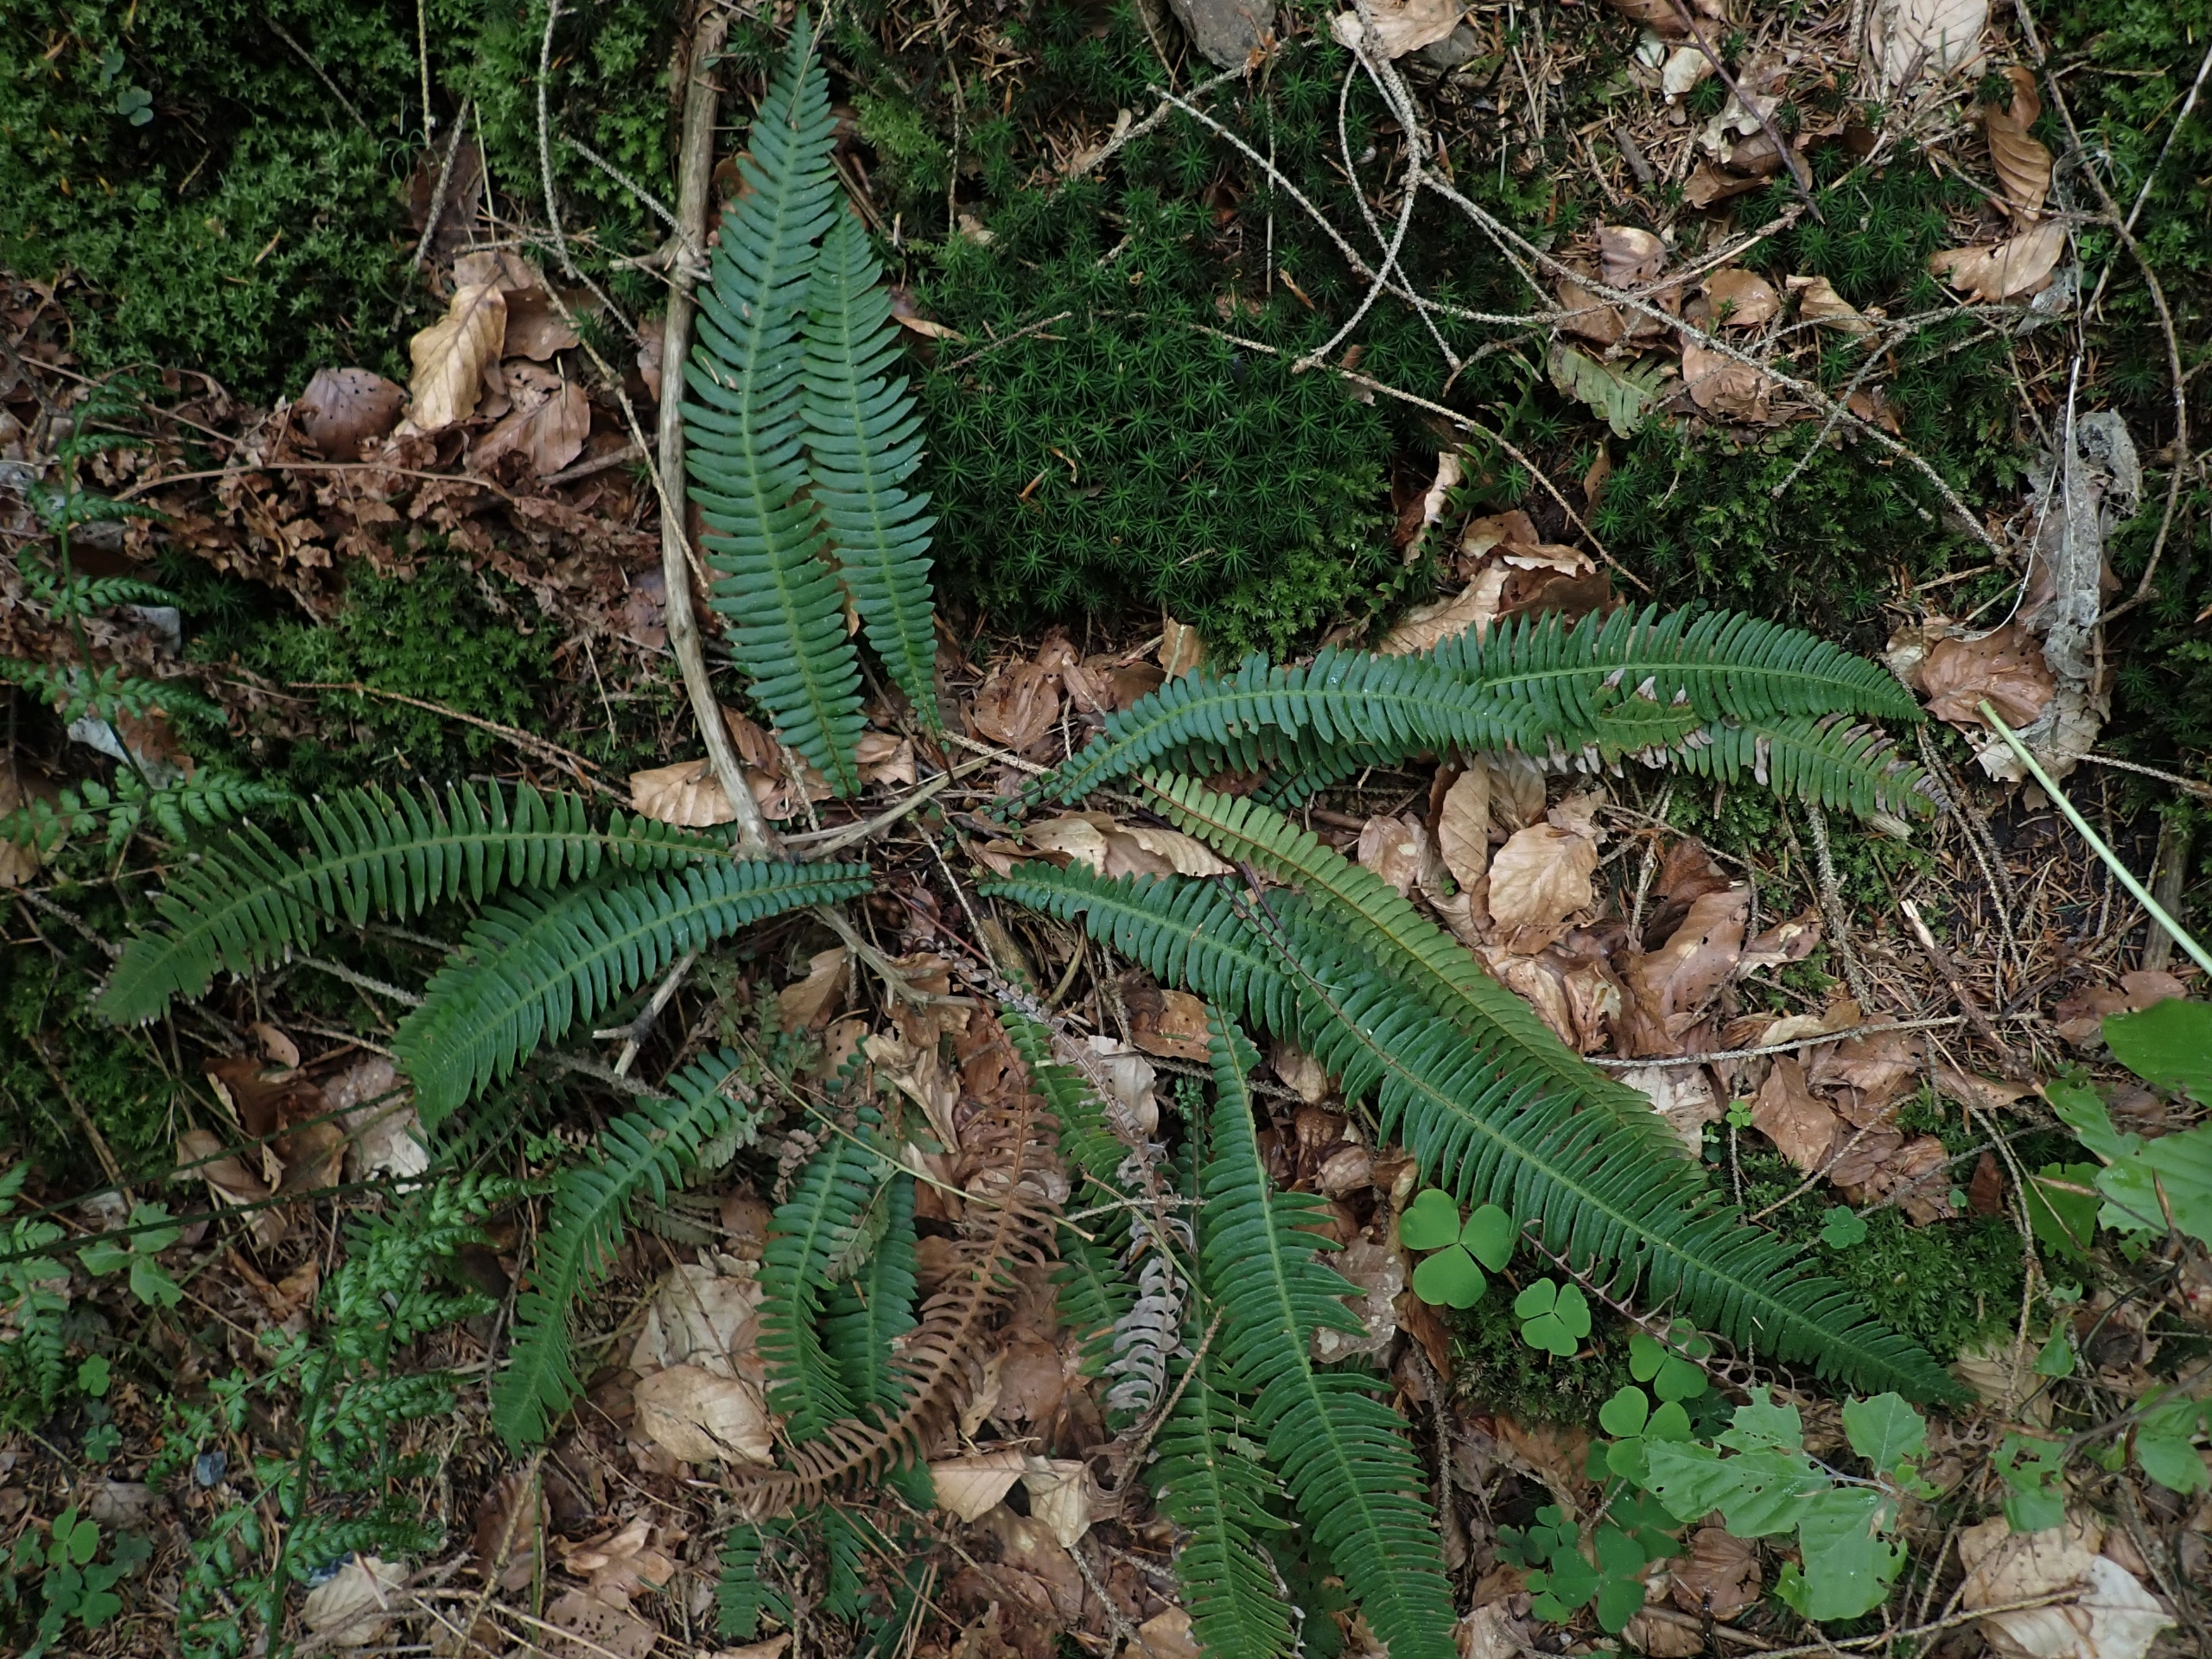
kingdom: Plantae
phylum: Tracheophyta
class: Polypodiopsida
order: Polypodiales
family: Blechnaceae
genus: Struthiopteris
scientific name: Struthiopteris spicant
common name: Kambregne
